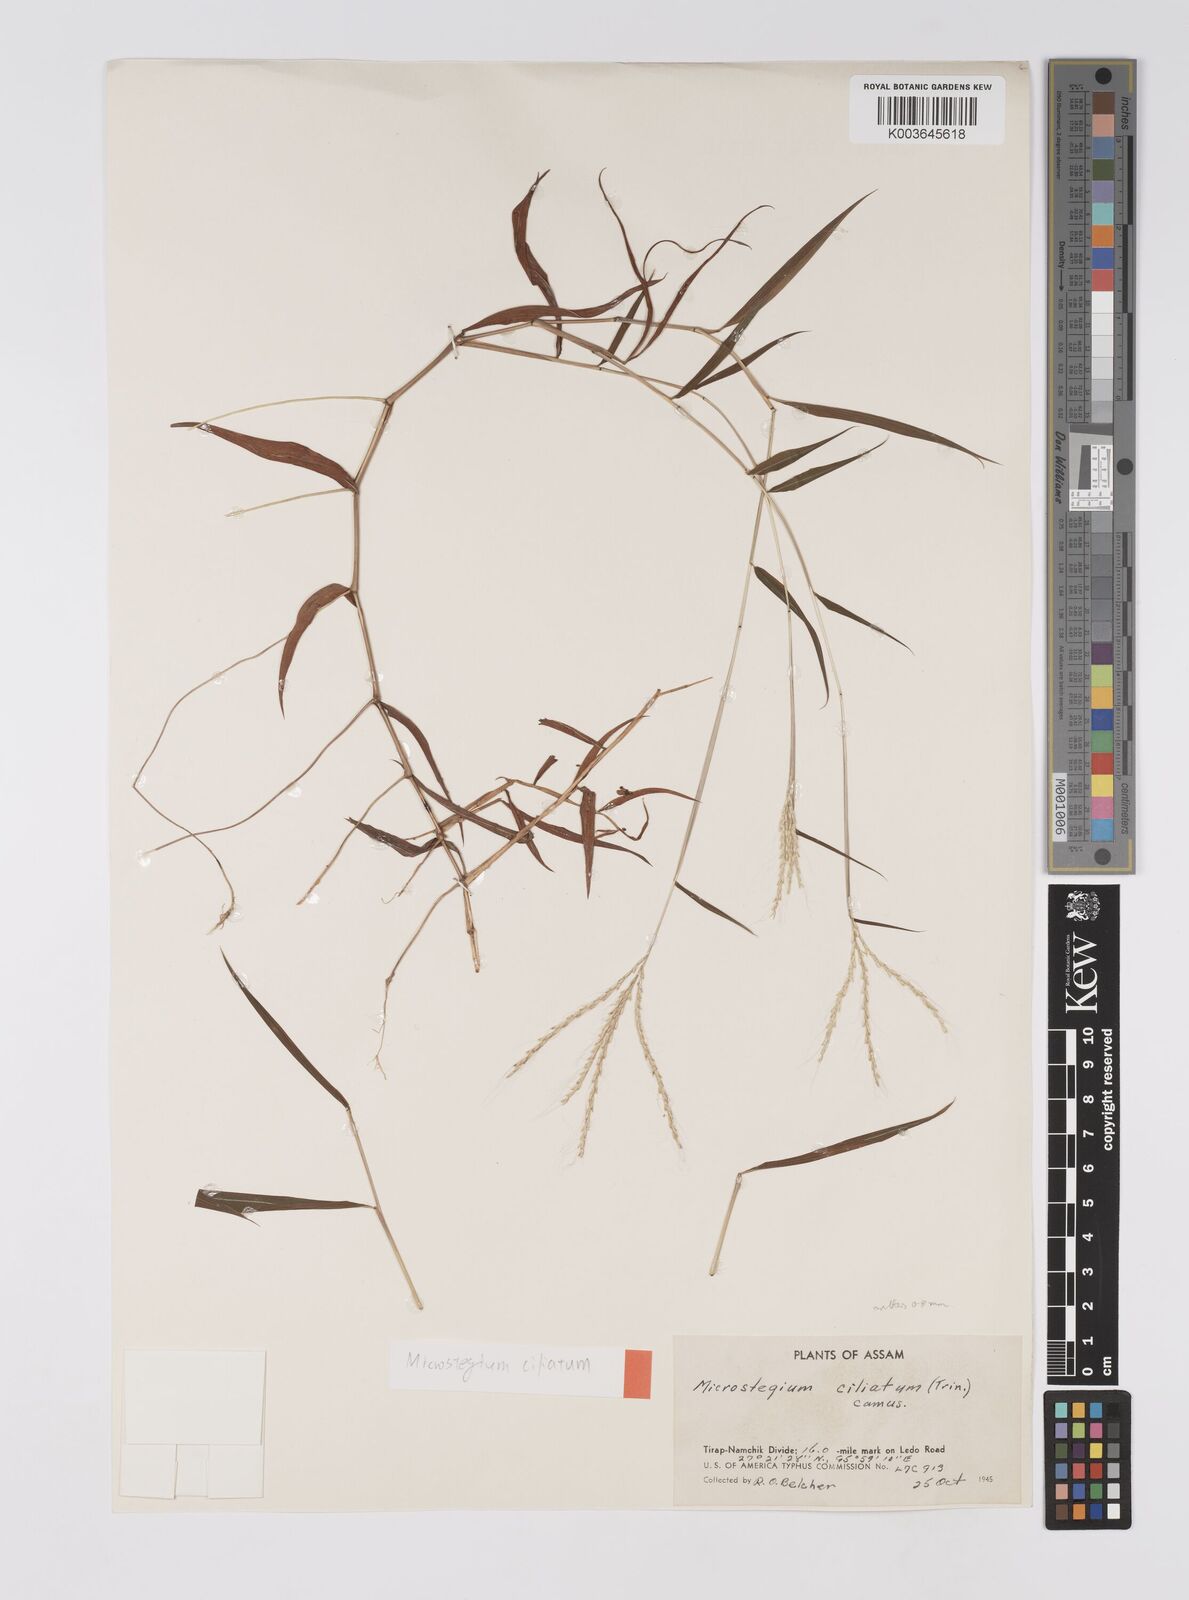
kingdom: Plantae
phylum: Tracheophyta
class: Liliopsida
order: Poales
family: Poaceae
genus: Microstegium
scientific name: Microstegium fasciculatum
